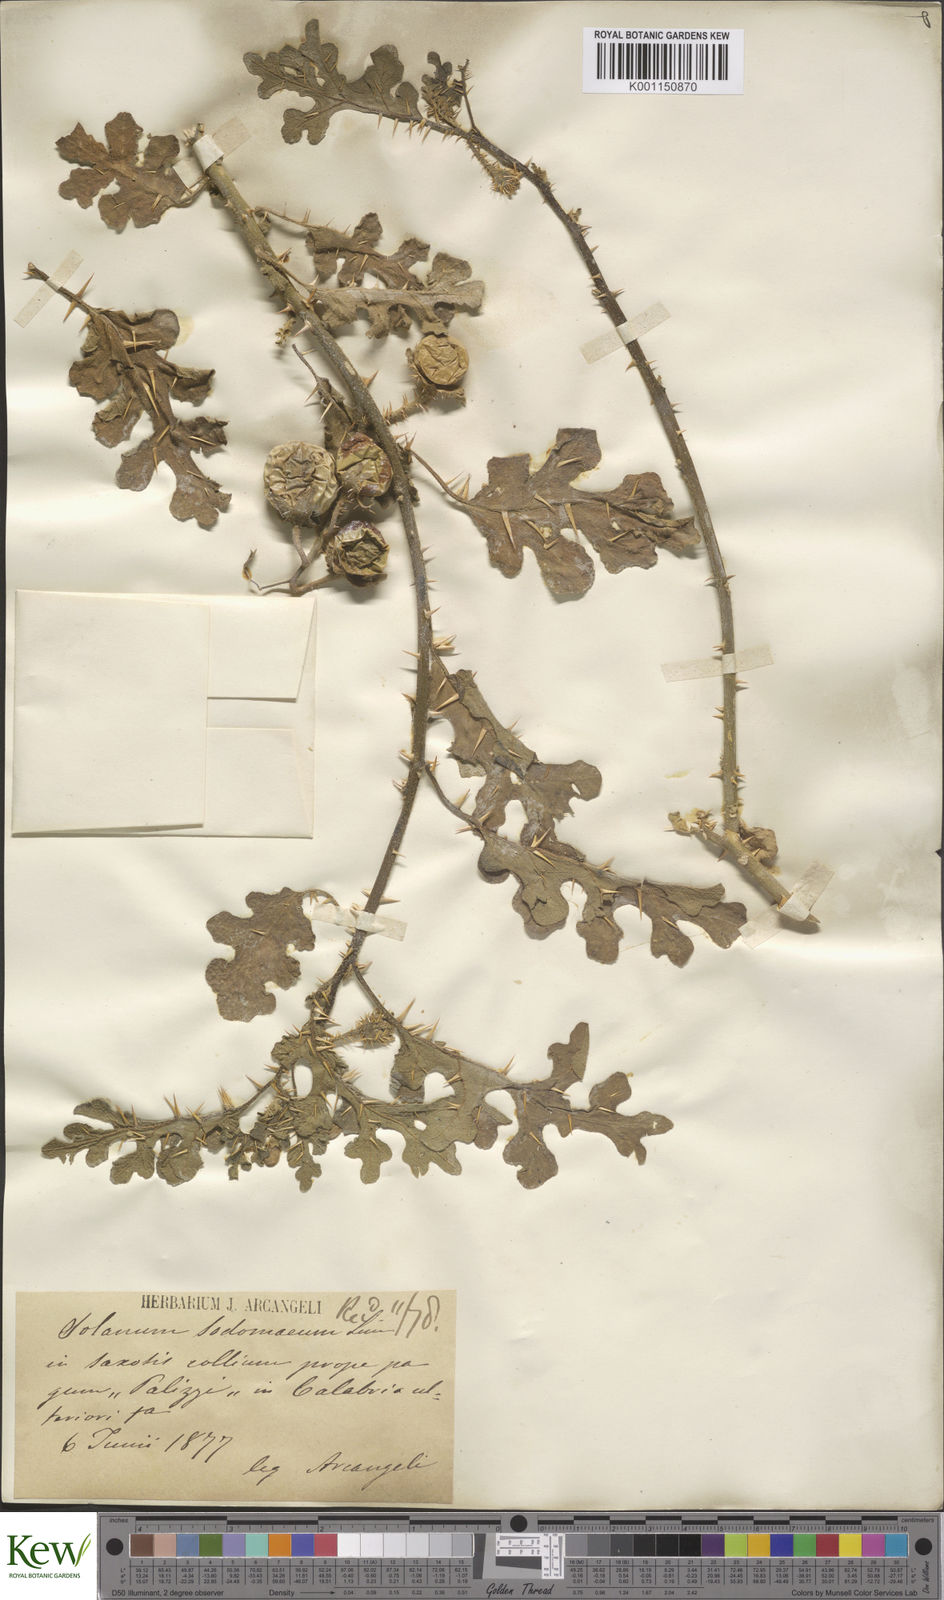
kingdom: Plantae
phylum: Tracheophyta
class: Magnoliopsida
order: Solanales
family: Solanaceae
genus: Solanum
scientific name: Solanum anguivi
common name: Forest bitterberry
